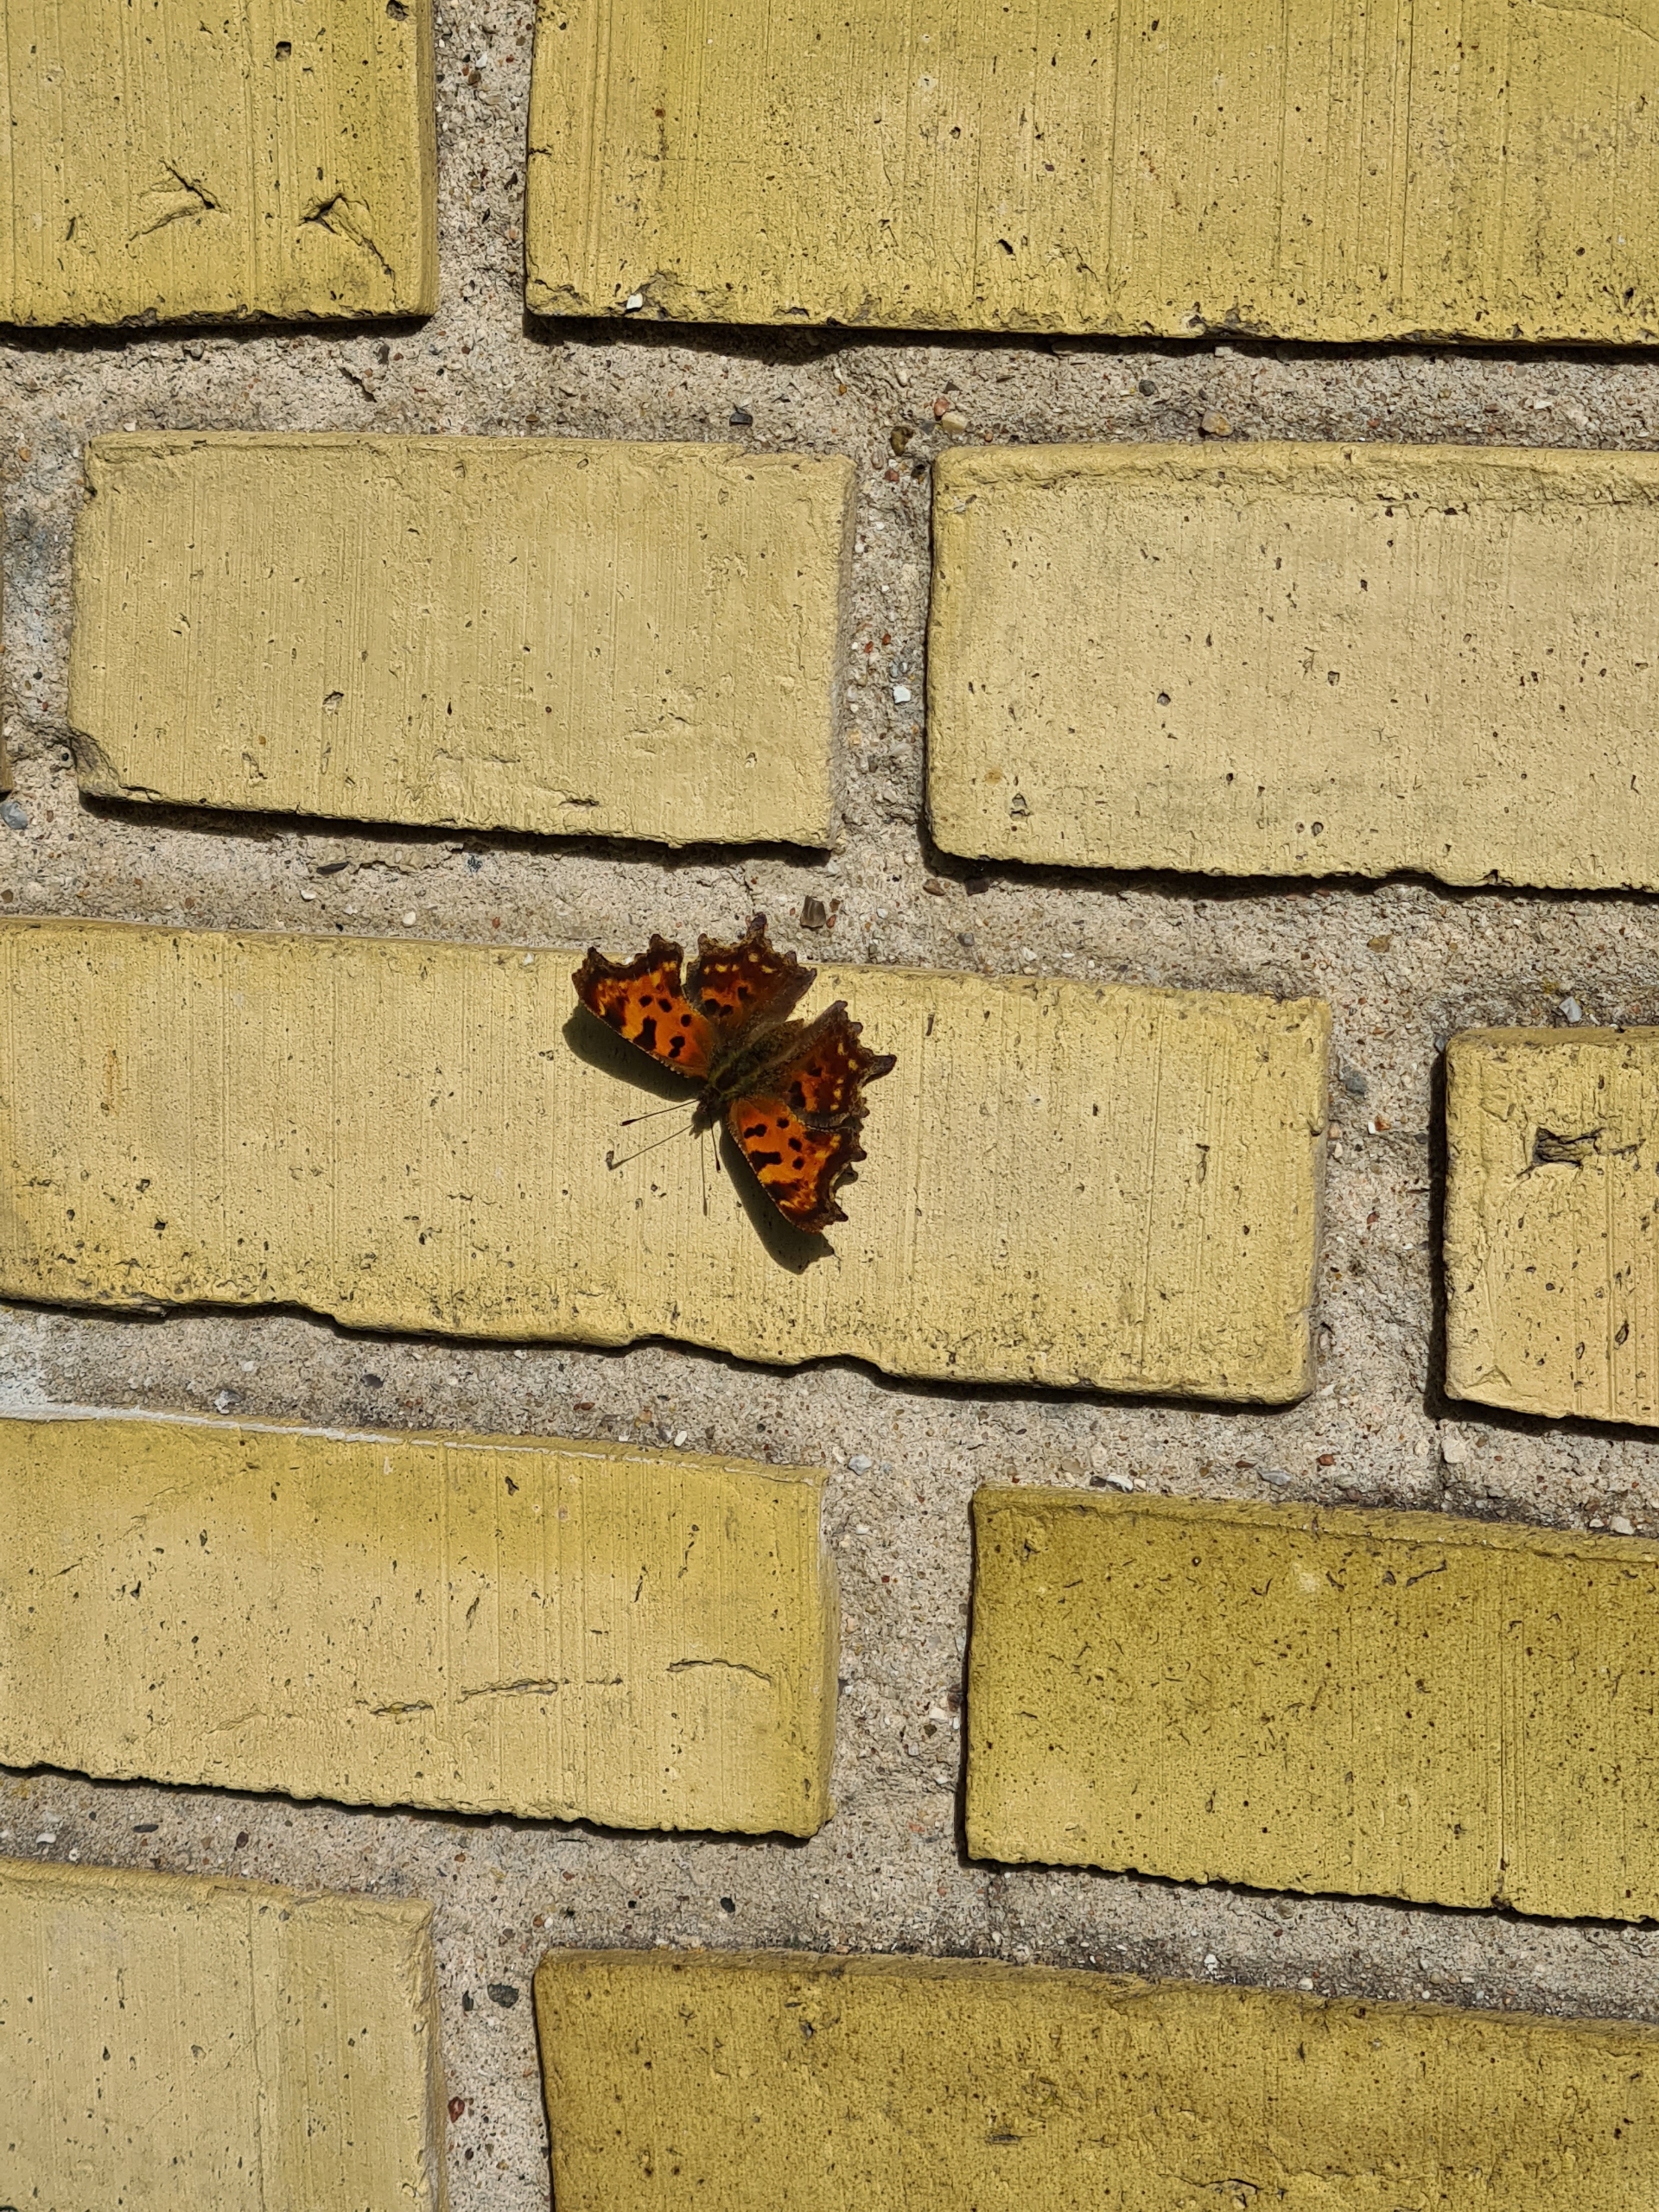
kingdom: Animalia
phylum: Arthropoda
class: Insecta
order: Lepidoptera
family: Nymphalidae
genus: Polygonia
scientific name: Polygonia c-album
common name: Det hvide C
